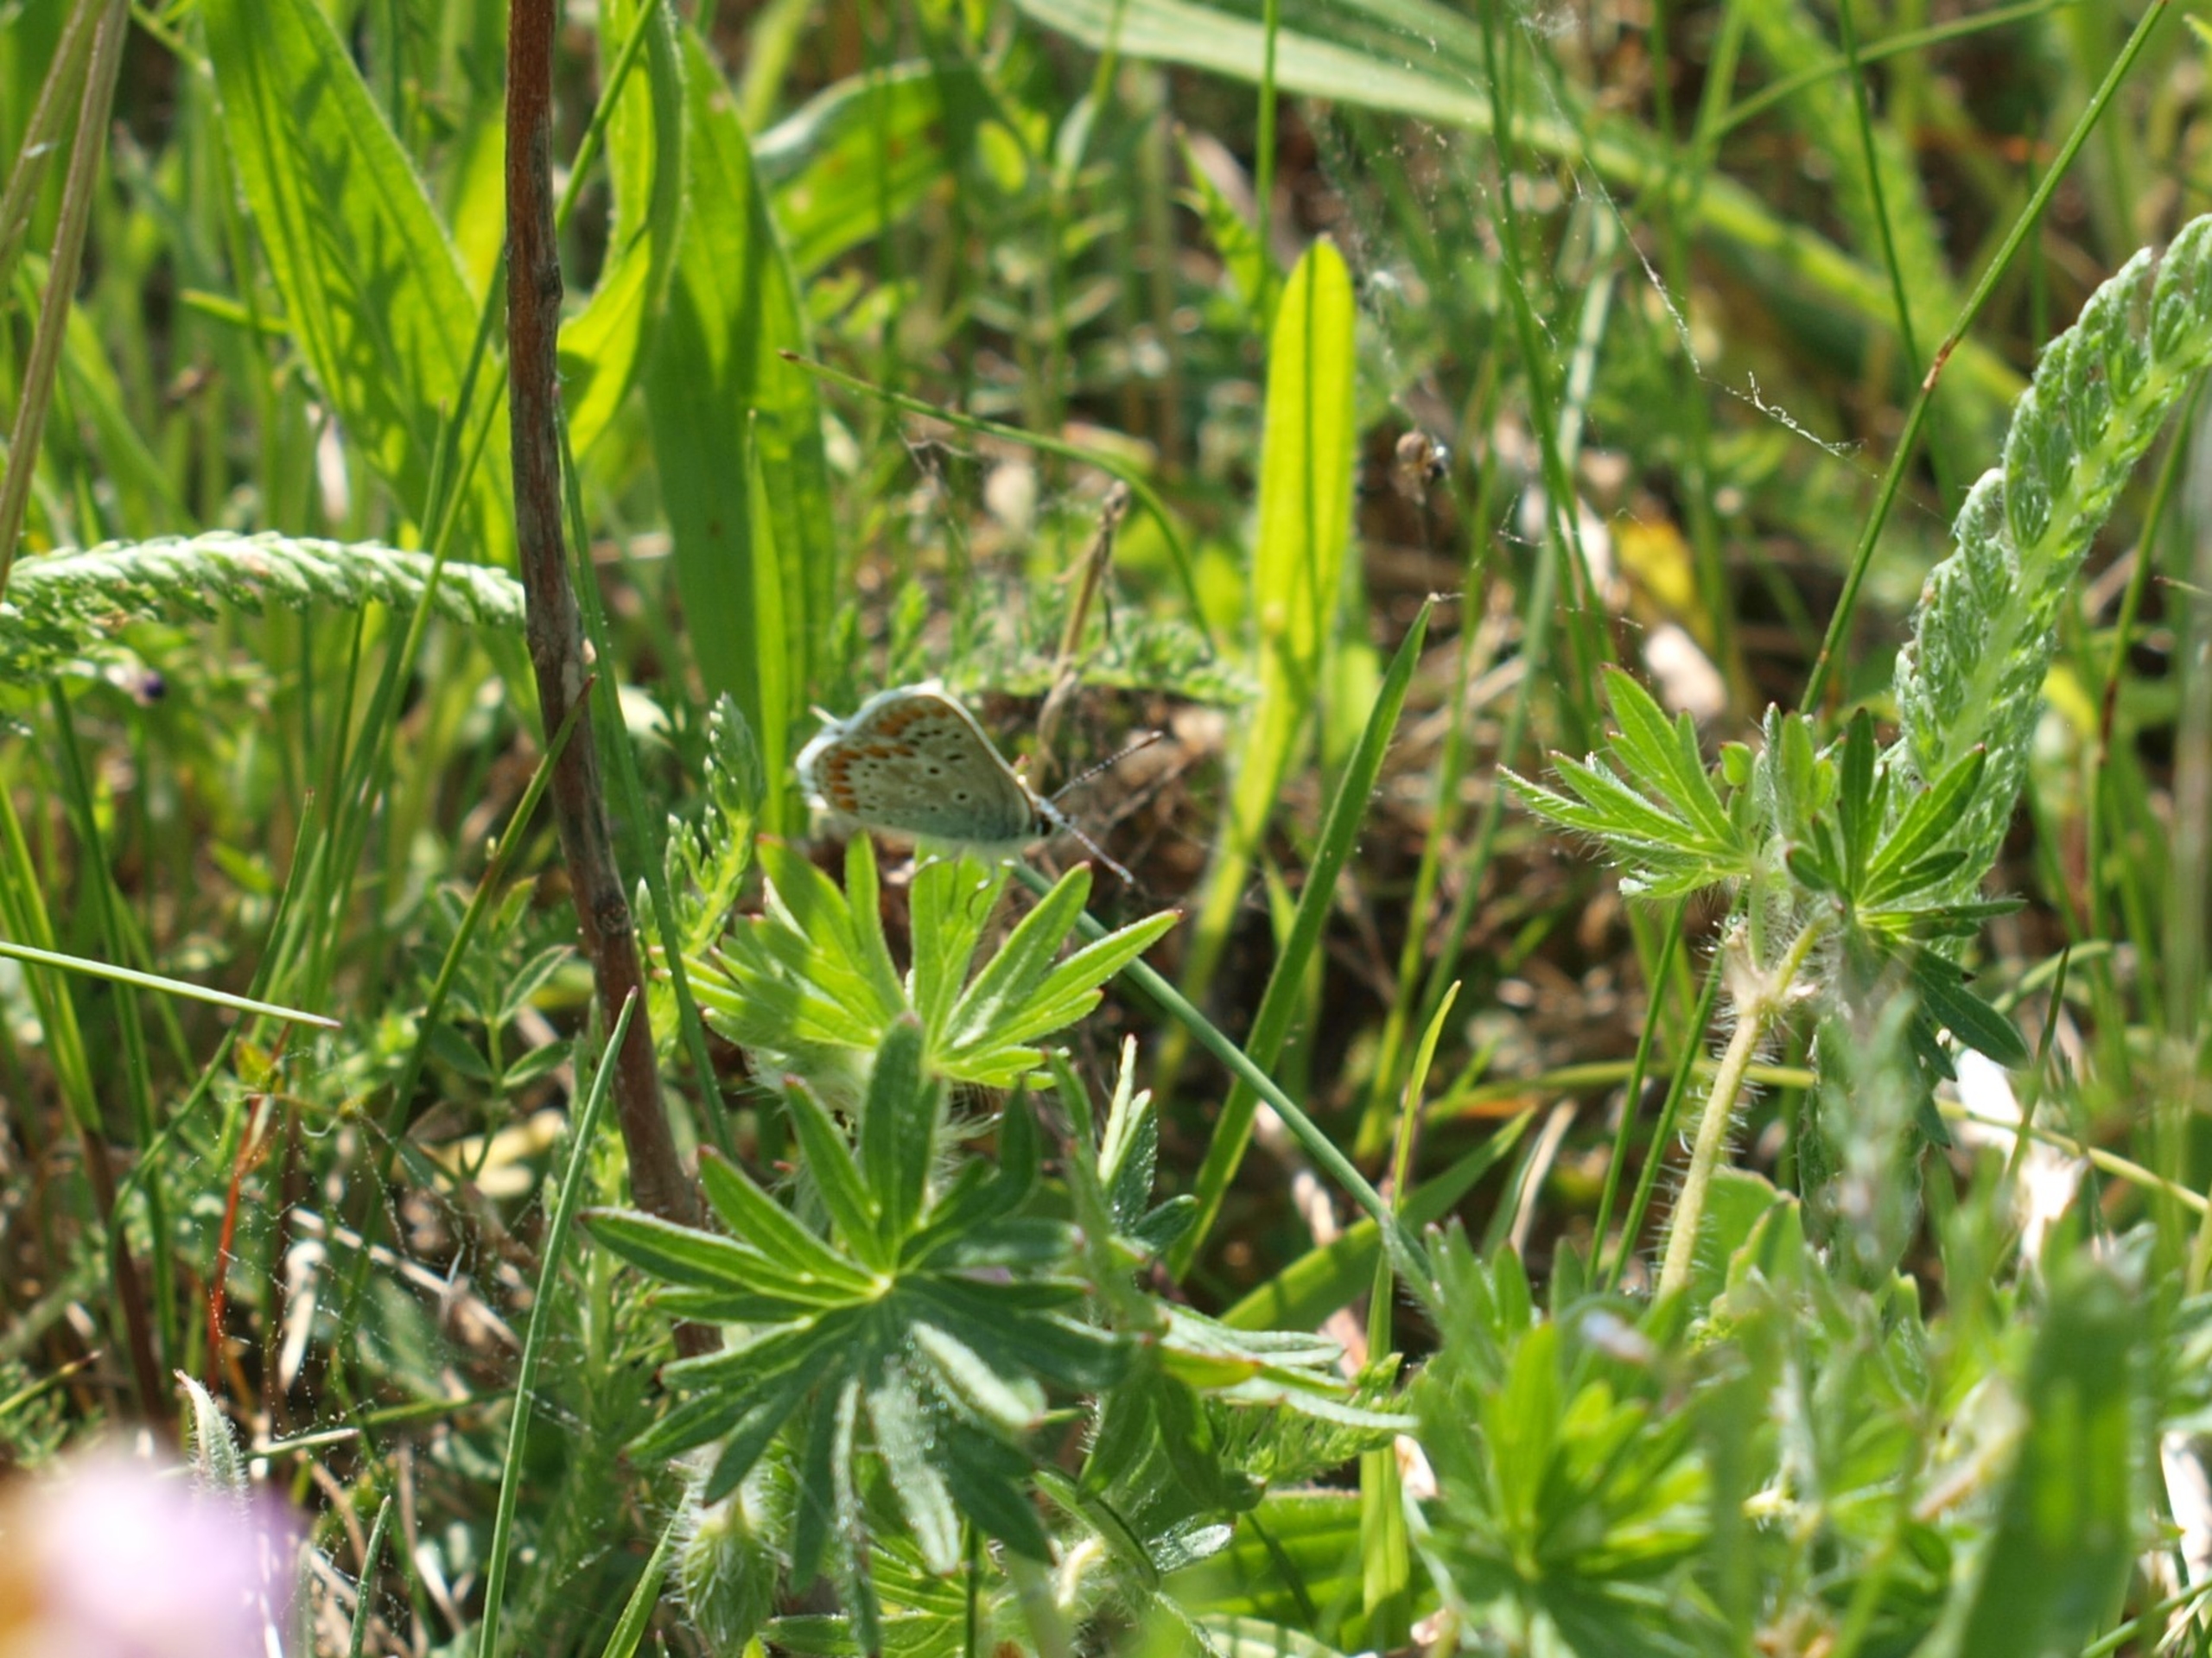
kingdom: Animalia
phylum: Arthropoda
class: Insecta
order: Lepidoptera
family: Lycaenidae
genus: Aricia
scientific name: Aricia agestis
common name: Rødplettet blåfugl
